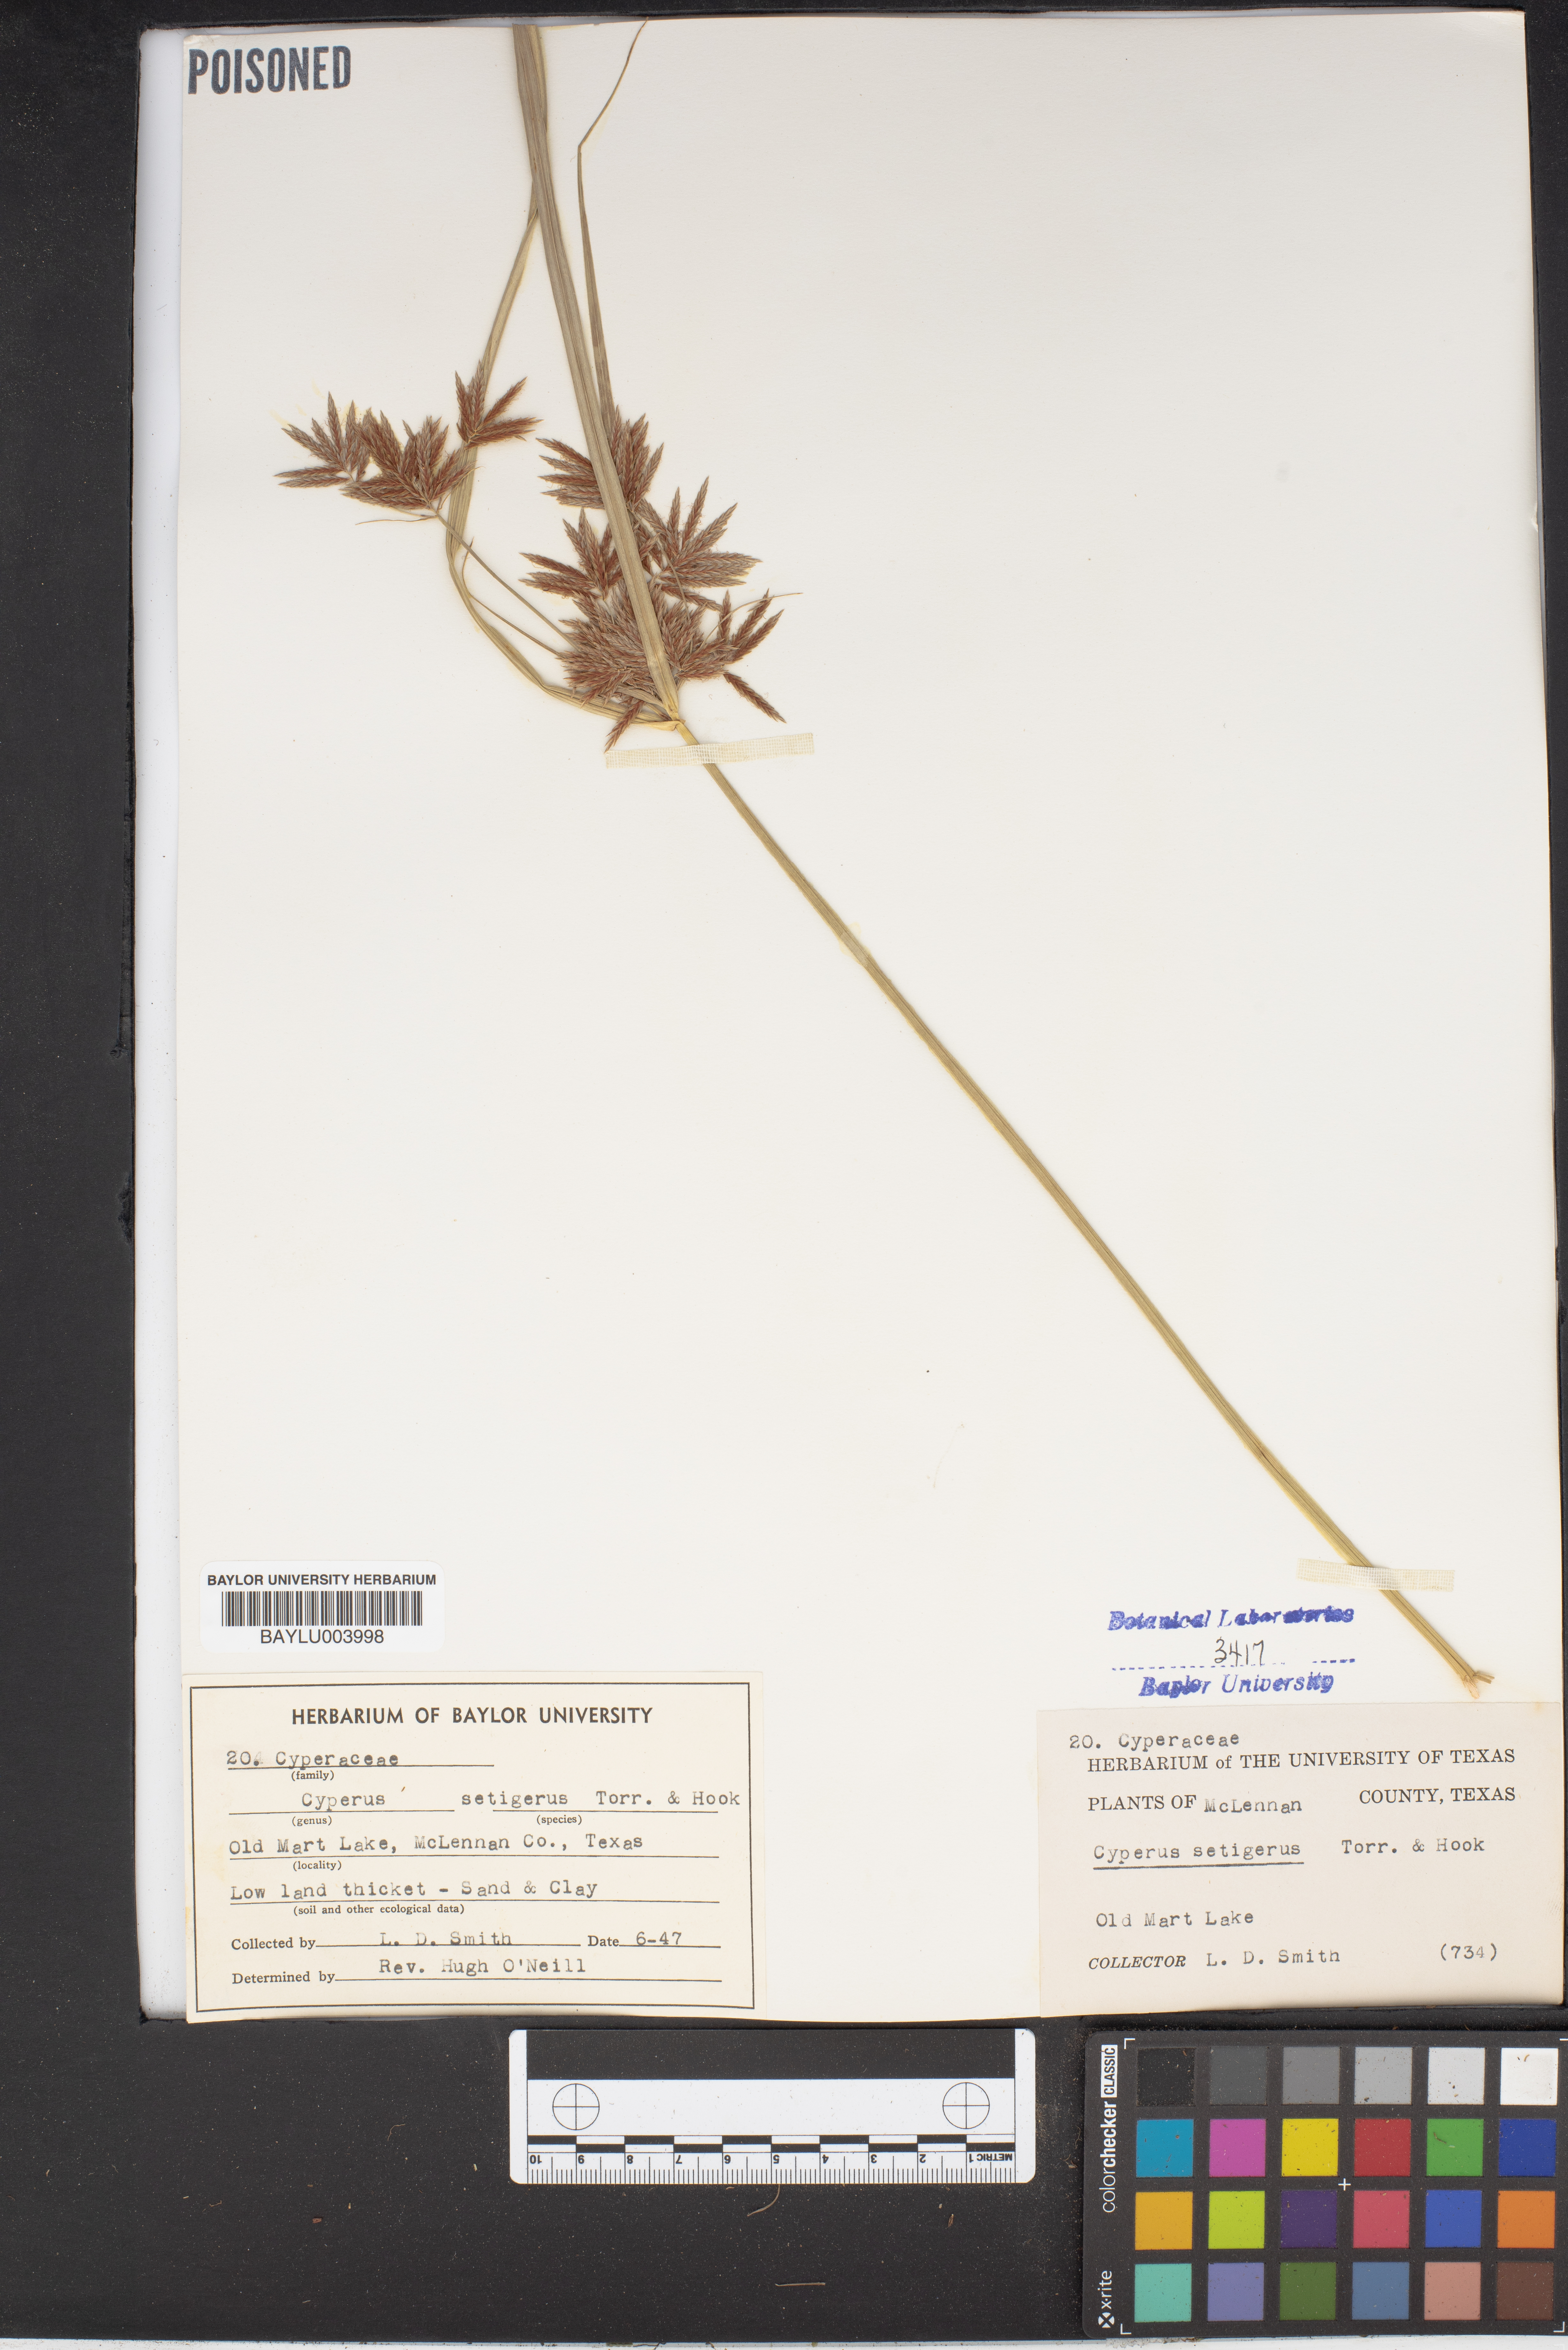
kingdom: Plantae
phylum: Tracheophyta
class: Liliopsida
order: Poales
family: Cyperaceae
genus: Cyperus
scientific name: Cyperus setigerus
